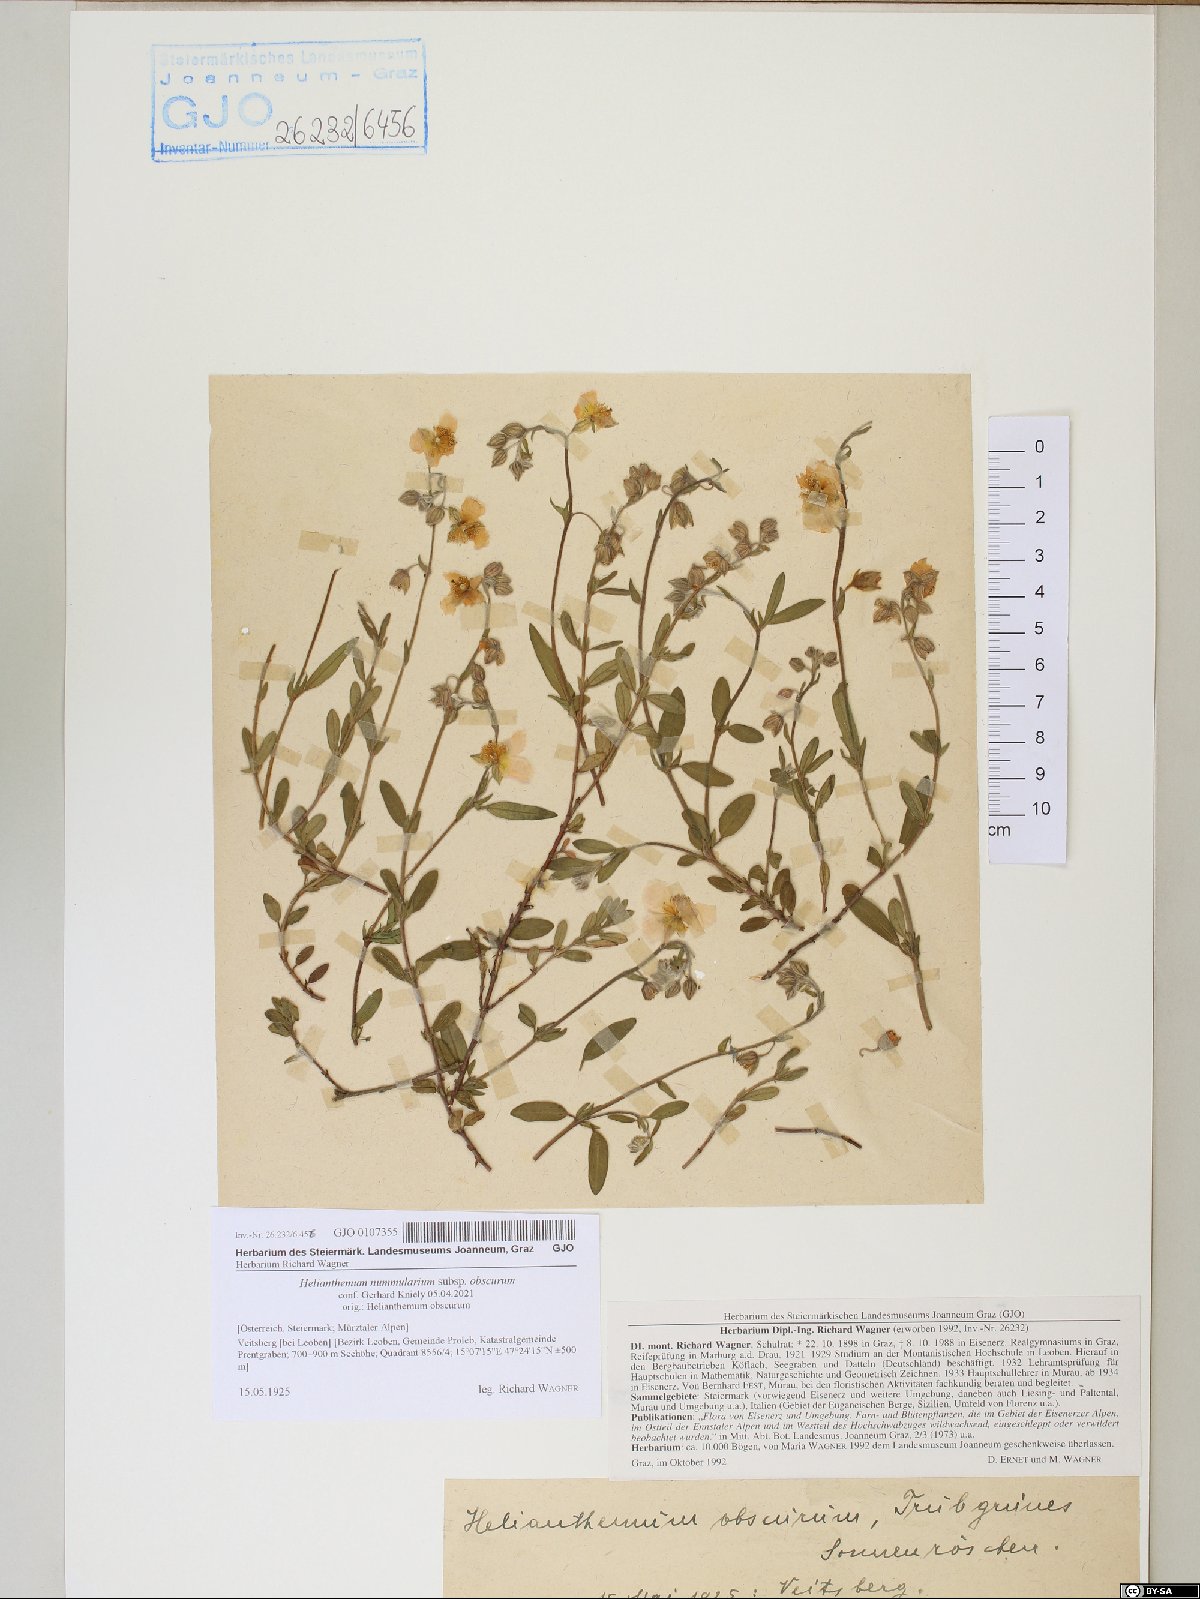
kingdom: Plantae
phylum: Tracheophyta
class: Magnoliopsida
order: Malvales
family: Cistaceae
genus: Helianthemum
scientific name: Helianthemum nummularium
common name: Common rock-rose
